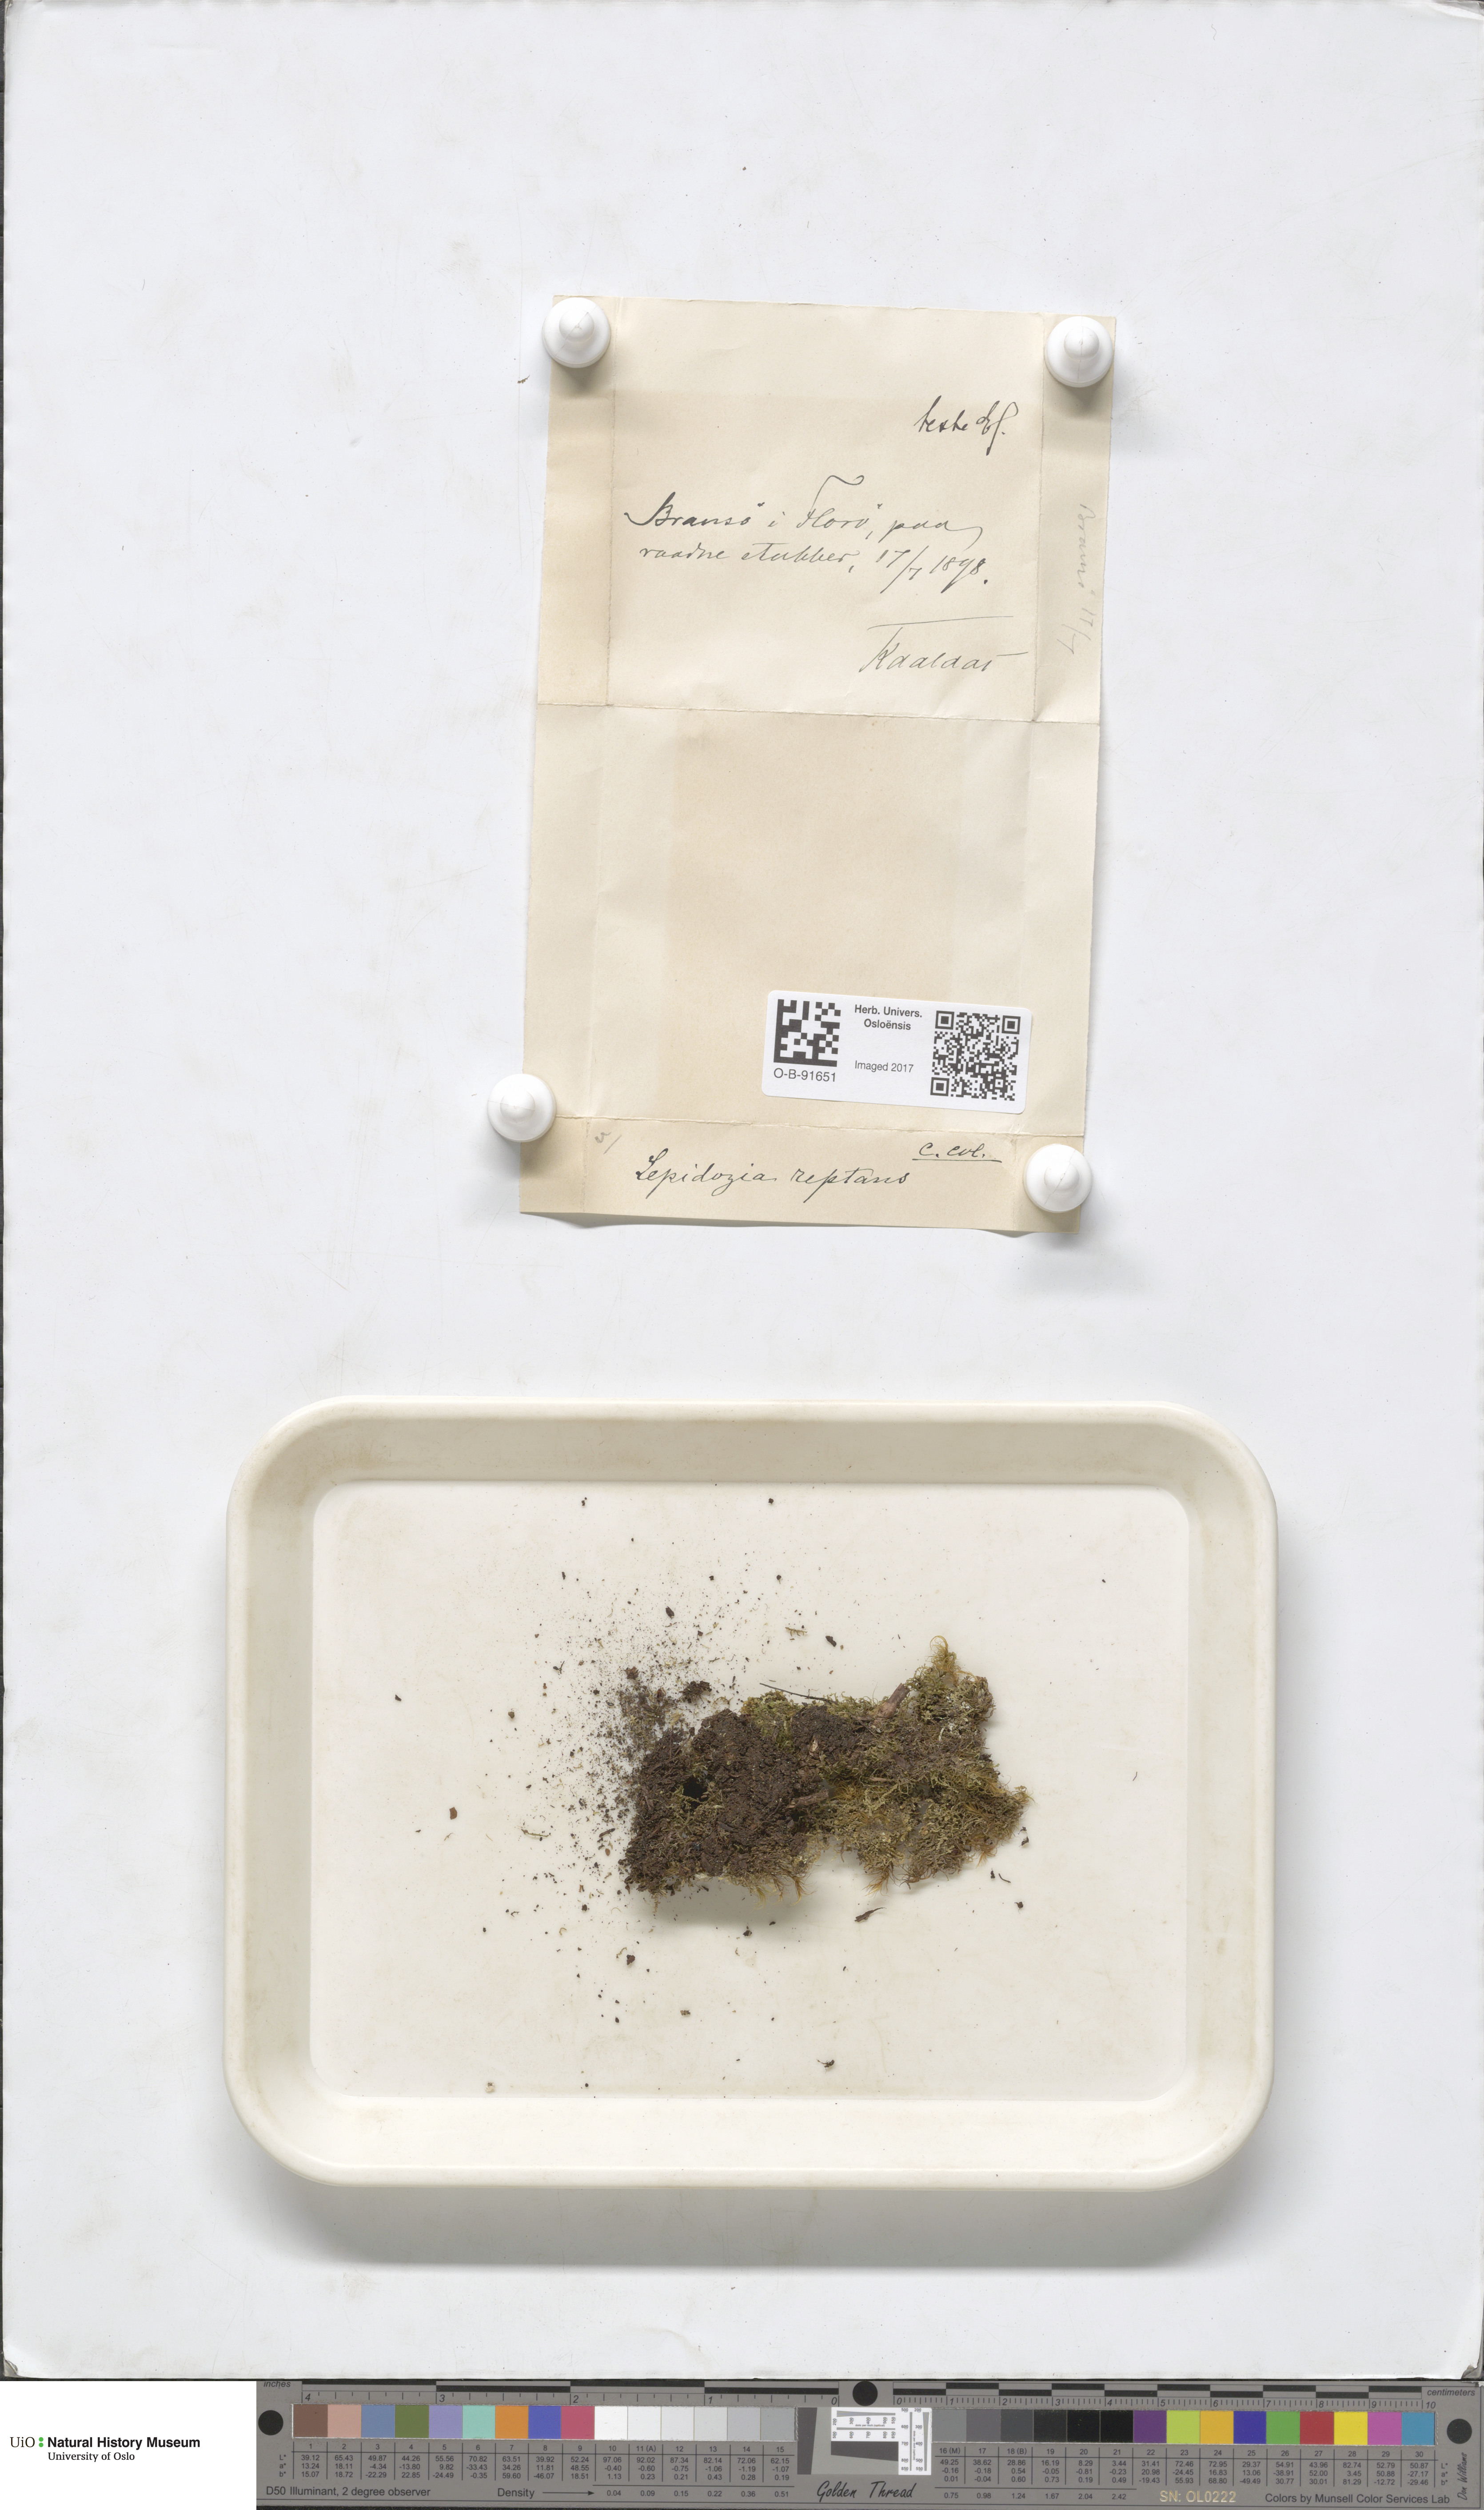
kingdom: Plantae
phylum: Marchantiophyta
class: Jungermanniopsida
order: Jungermanniales
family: Lepidoziaceae
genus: Lepidozia
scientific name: Lepidozia reptans
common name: Creeping fingerwort
